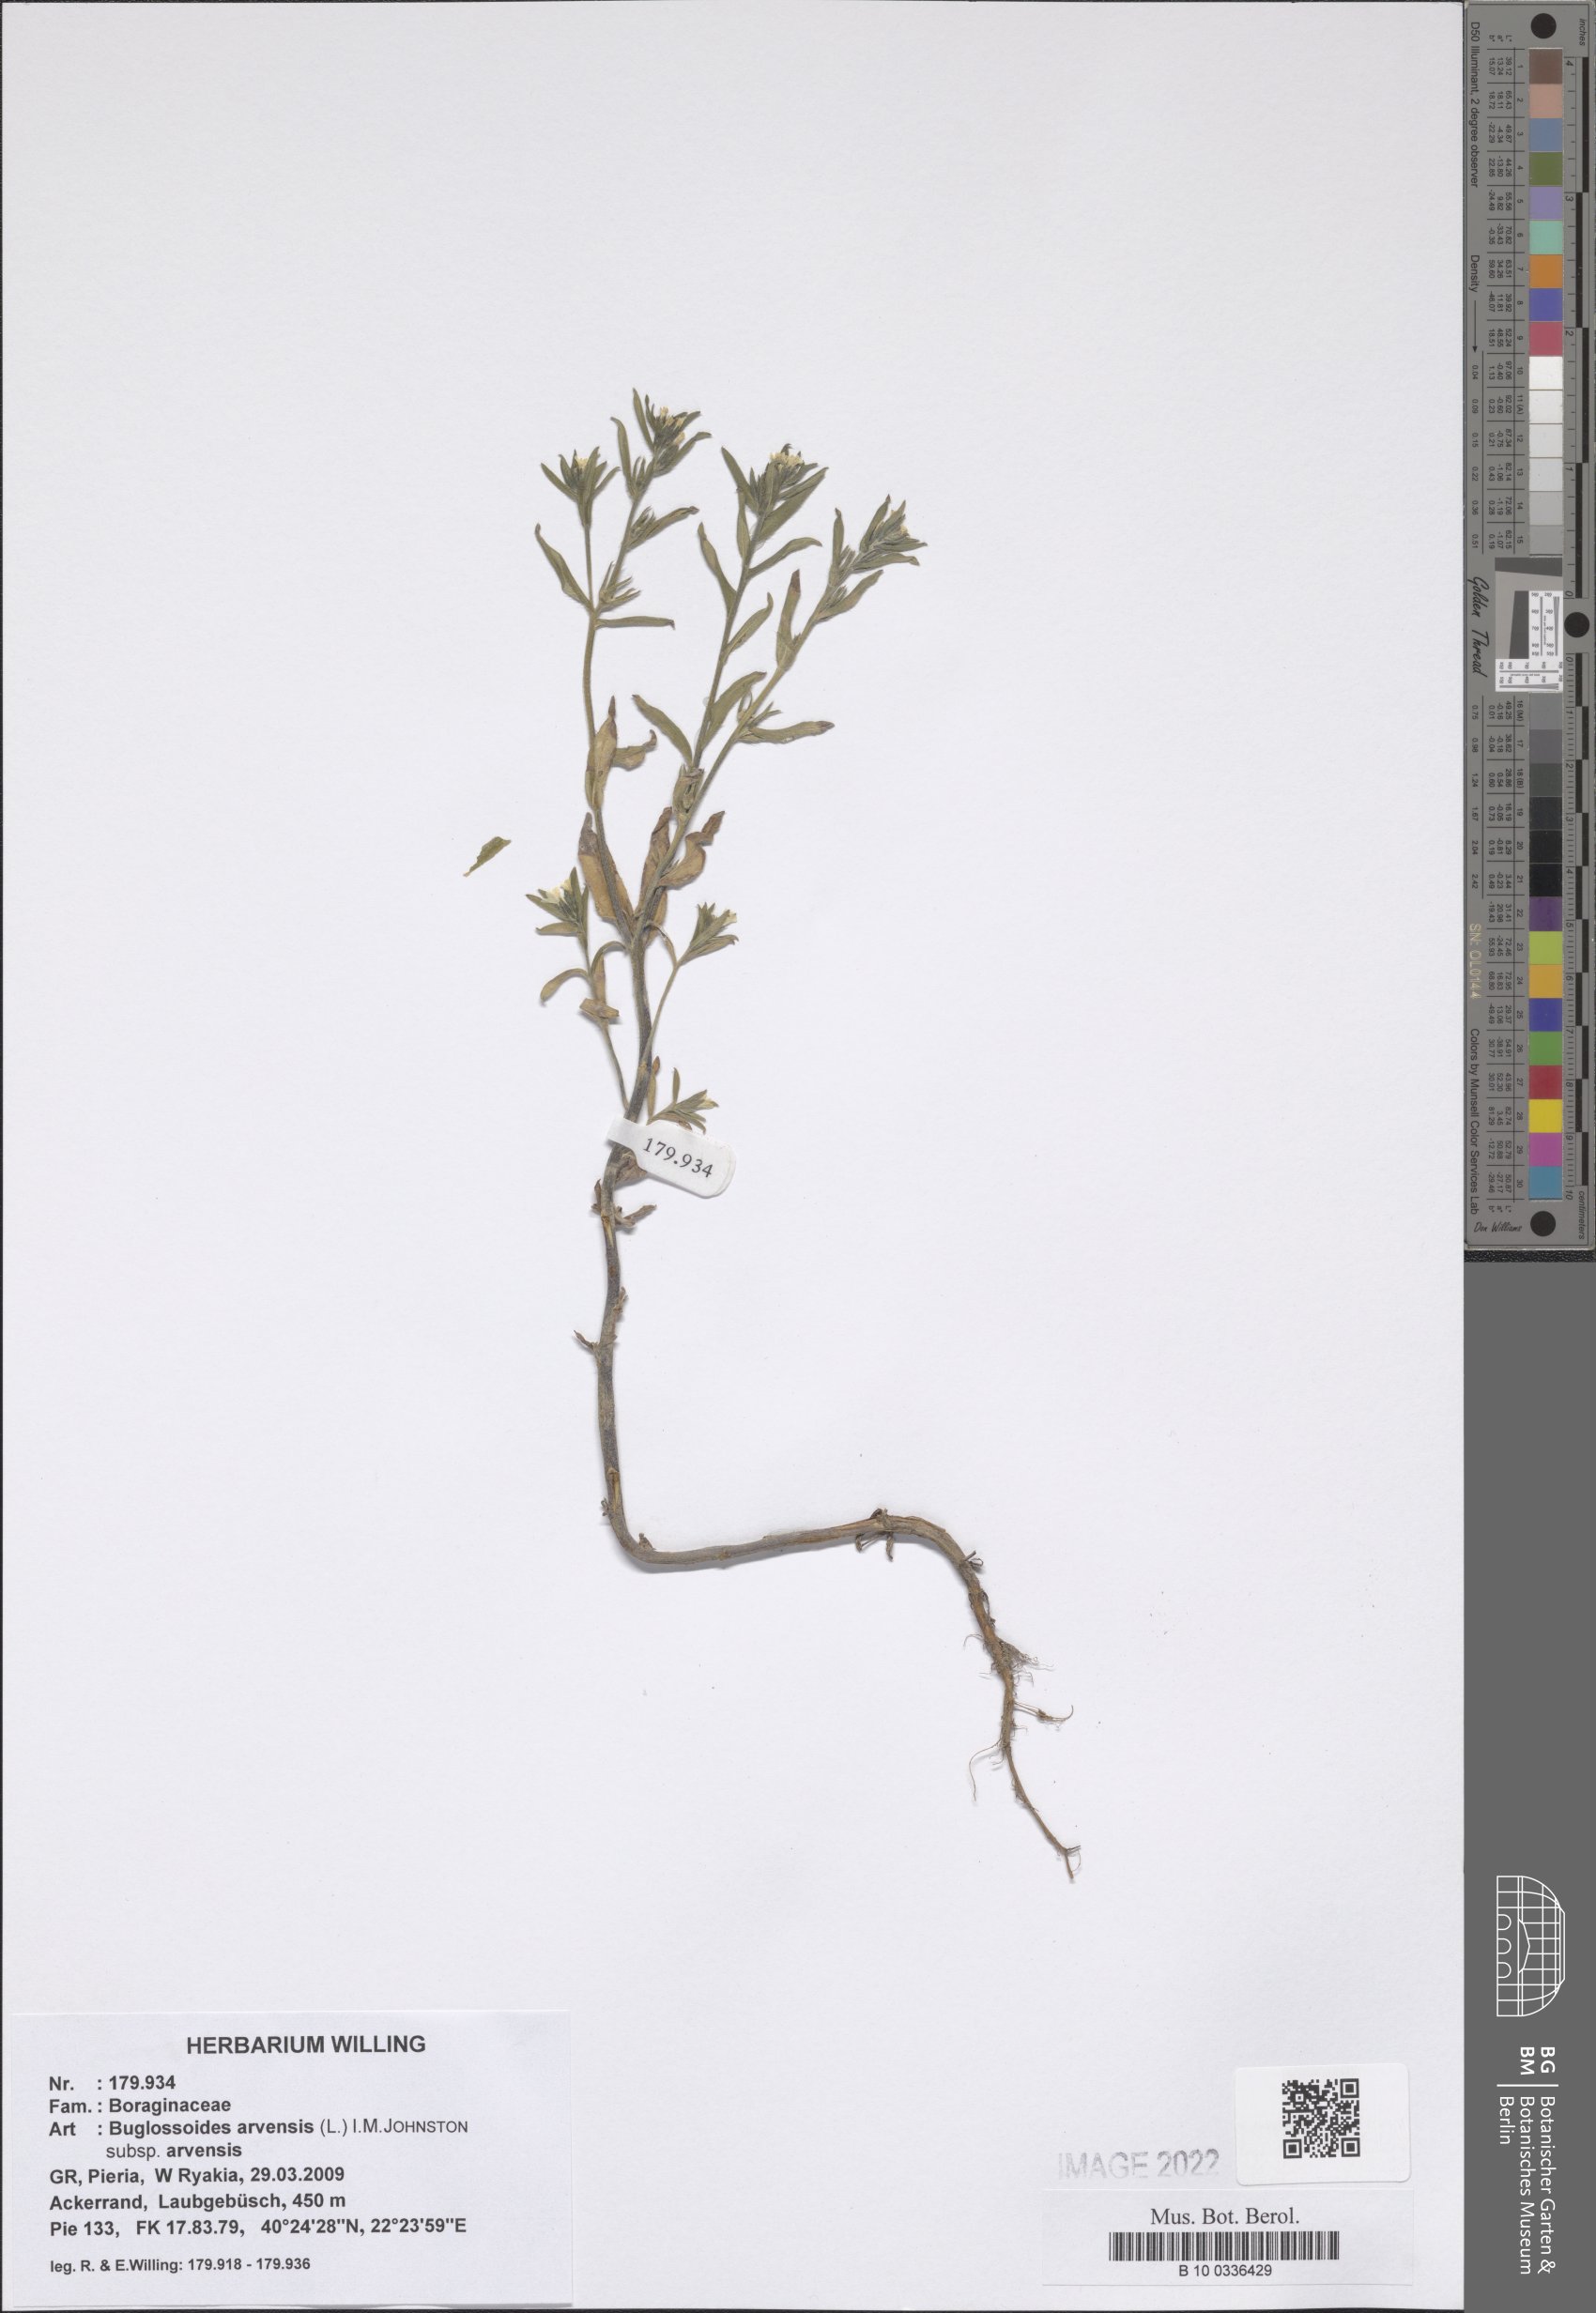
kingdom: Plantae
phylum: Tracheophyta
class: Magnoliopsida
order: Boraginales
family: Boraginaceae
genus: Buglossoides
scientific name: Buglossoides arvensis
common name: Corn gromwell
